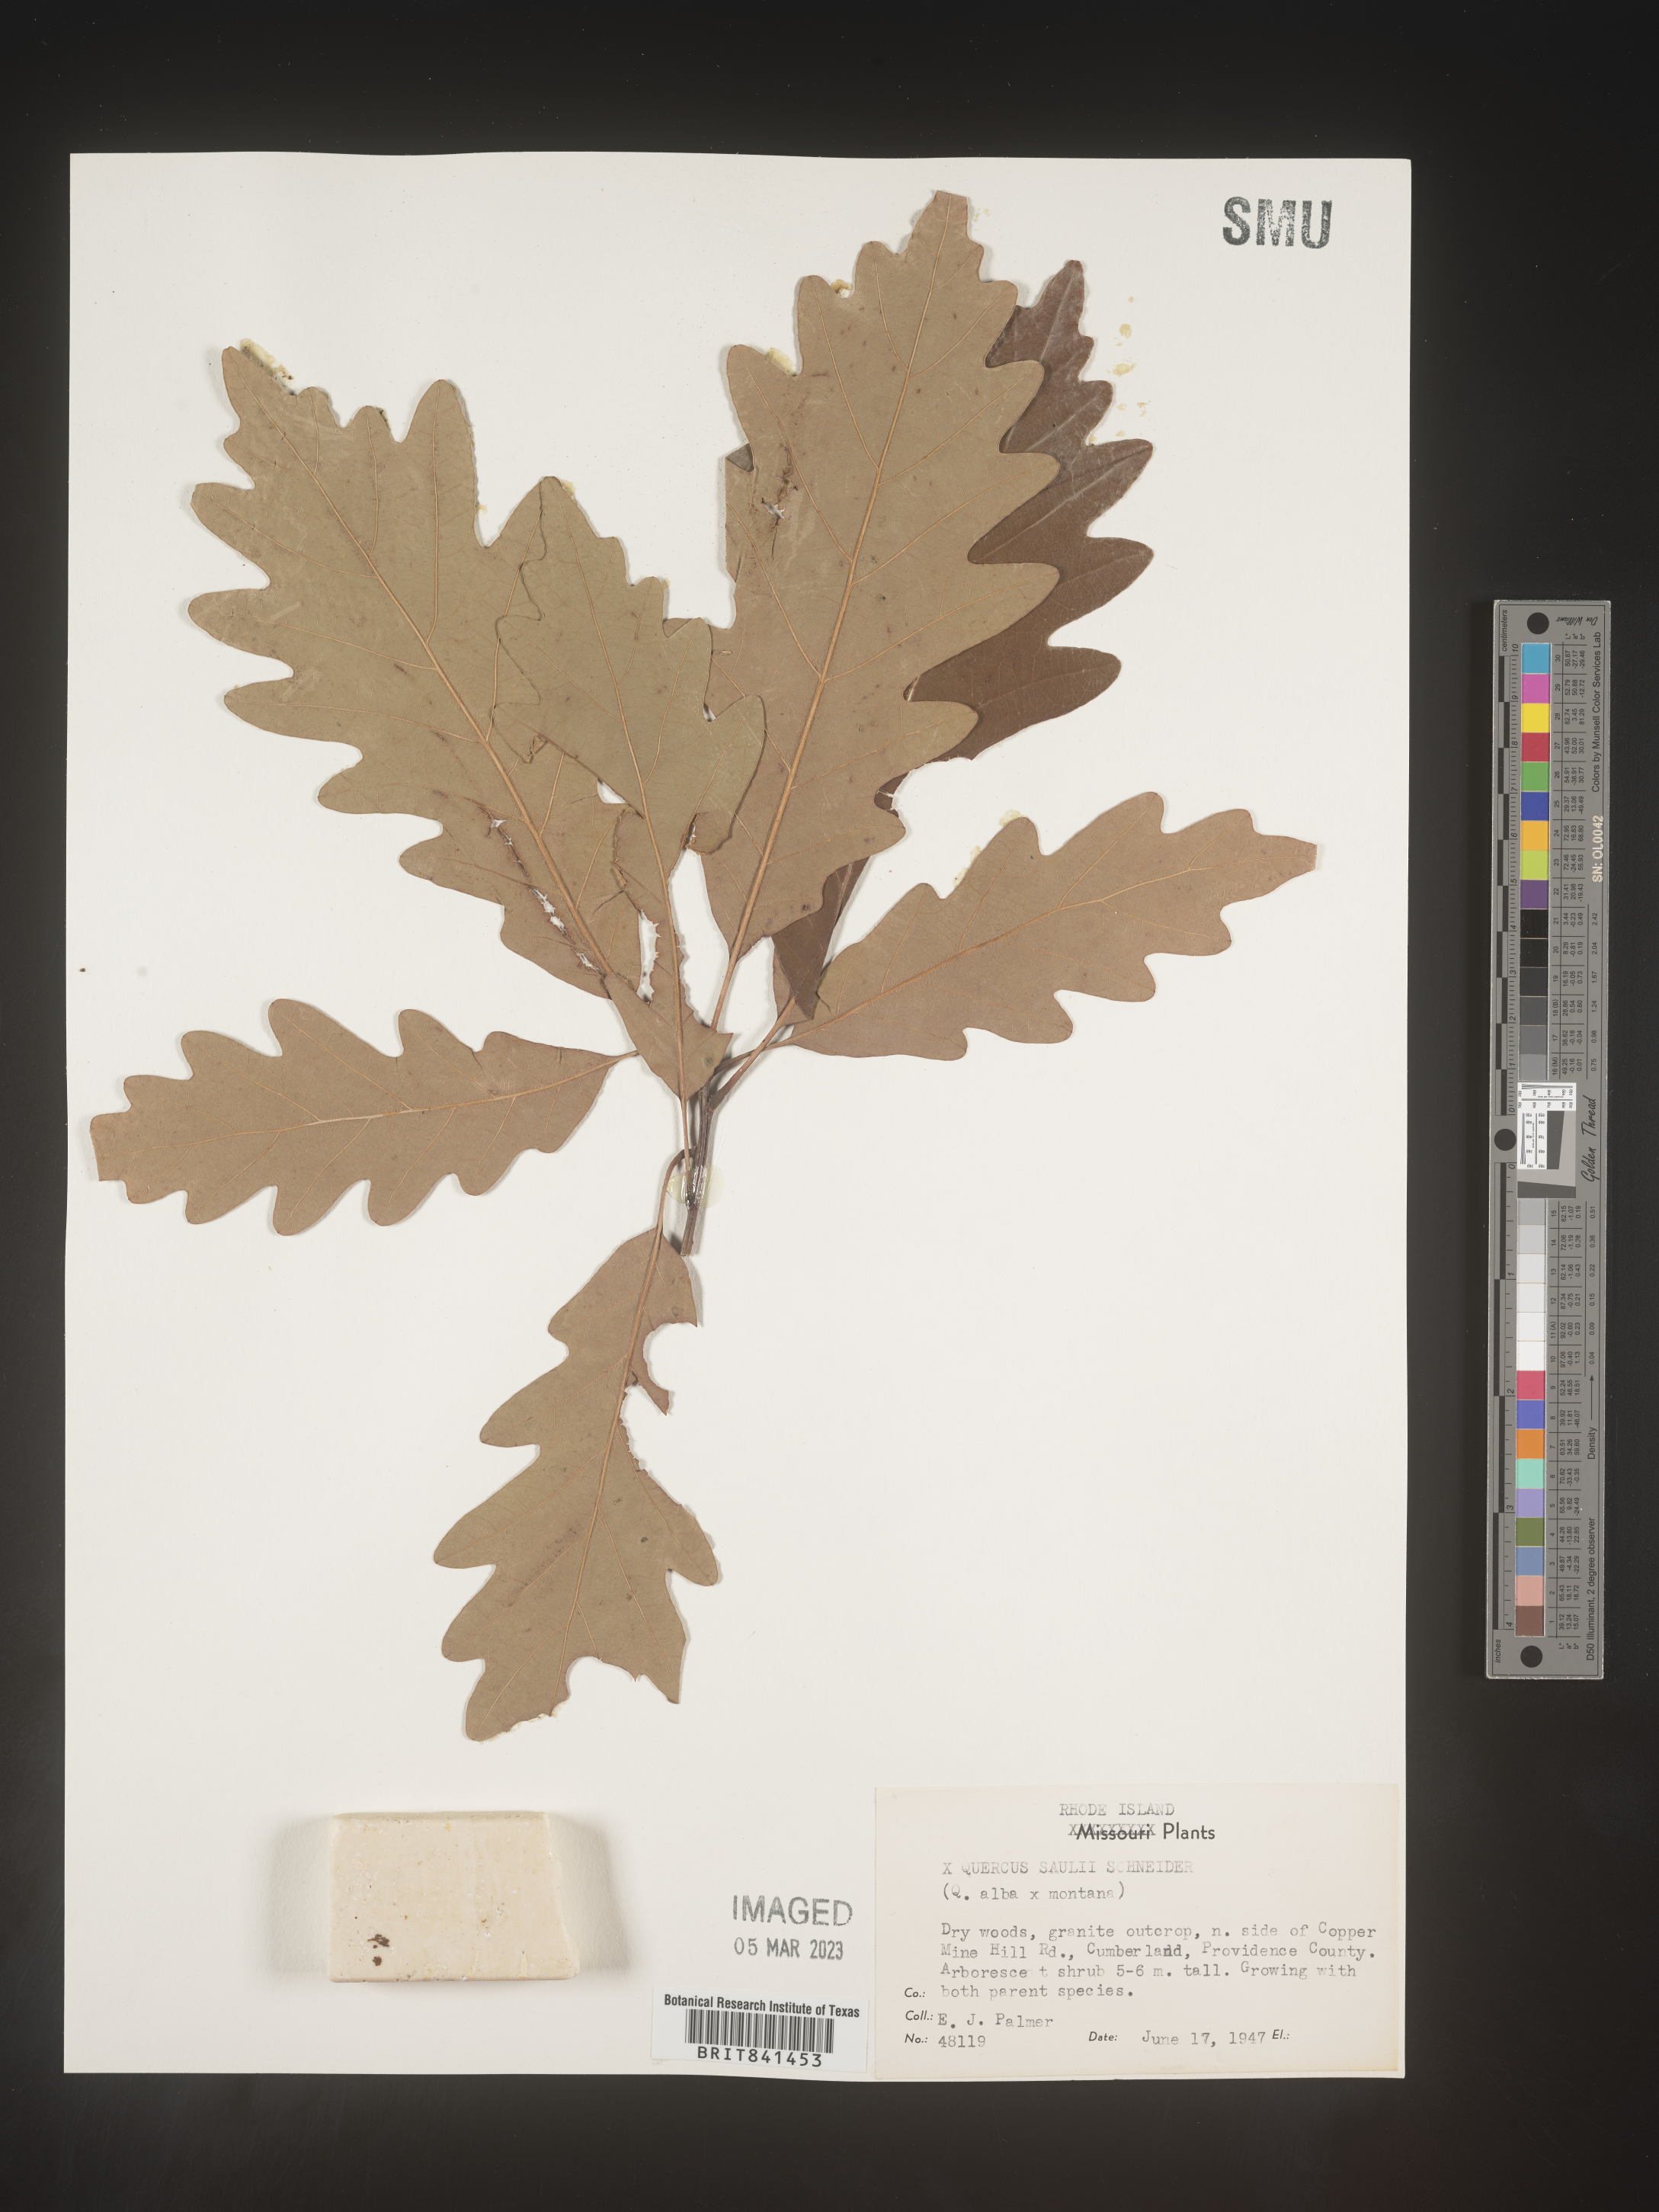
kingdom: Plantae
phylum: Tracheophyta
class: Magnoliopsida
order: Fagales
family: Fagaceae
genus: Quercus
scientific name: Quercus saulii
